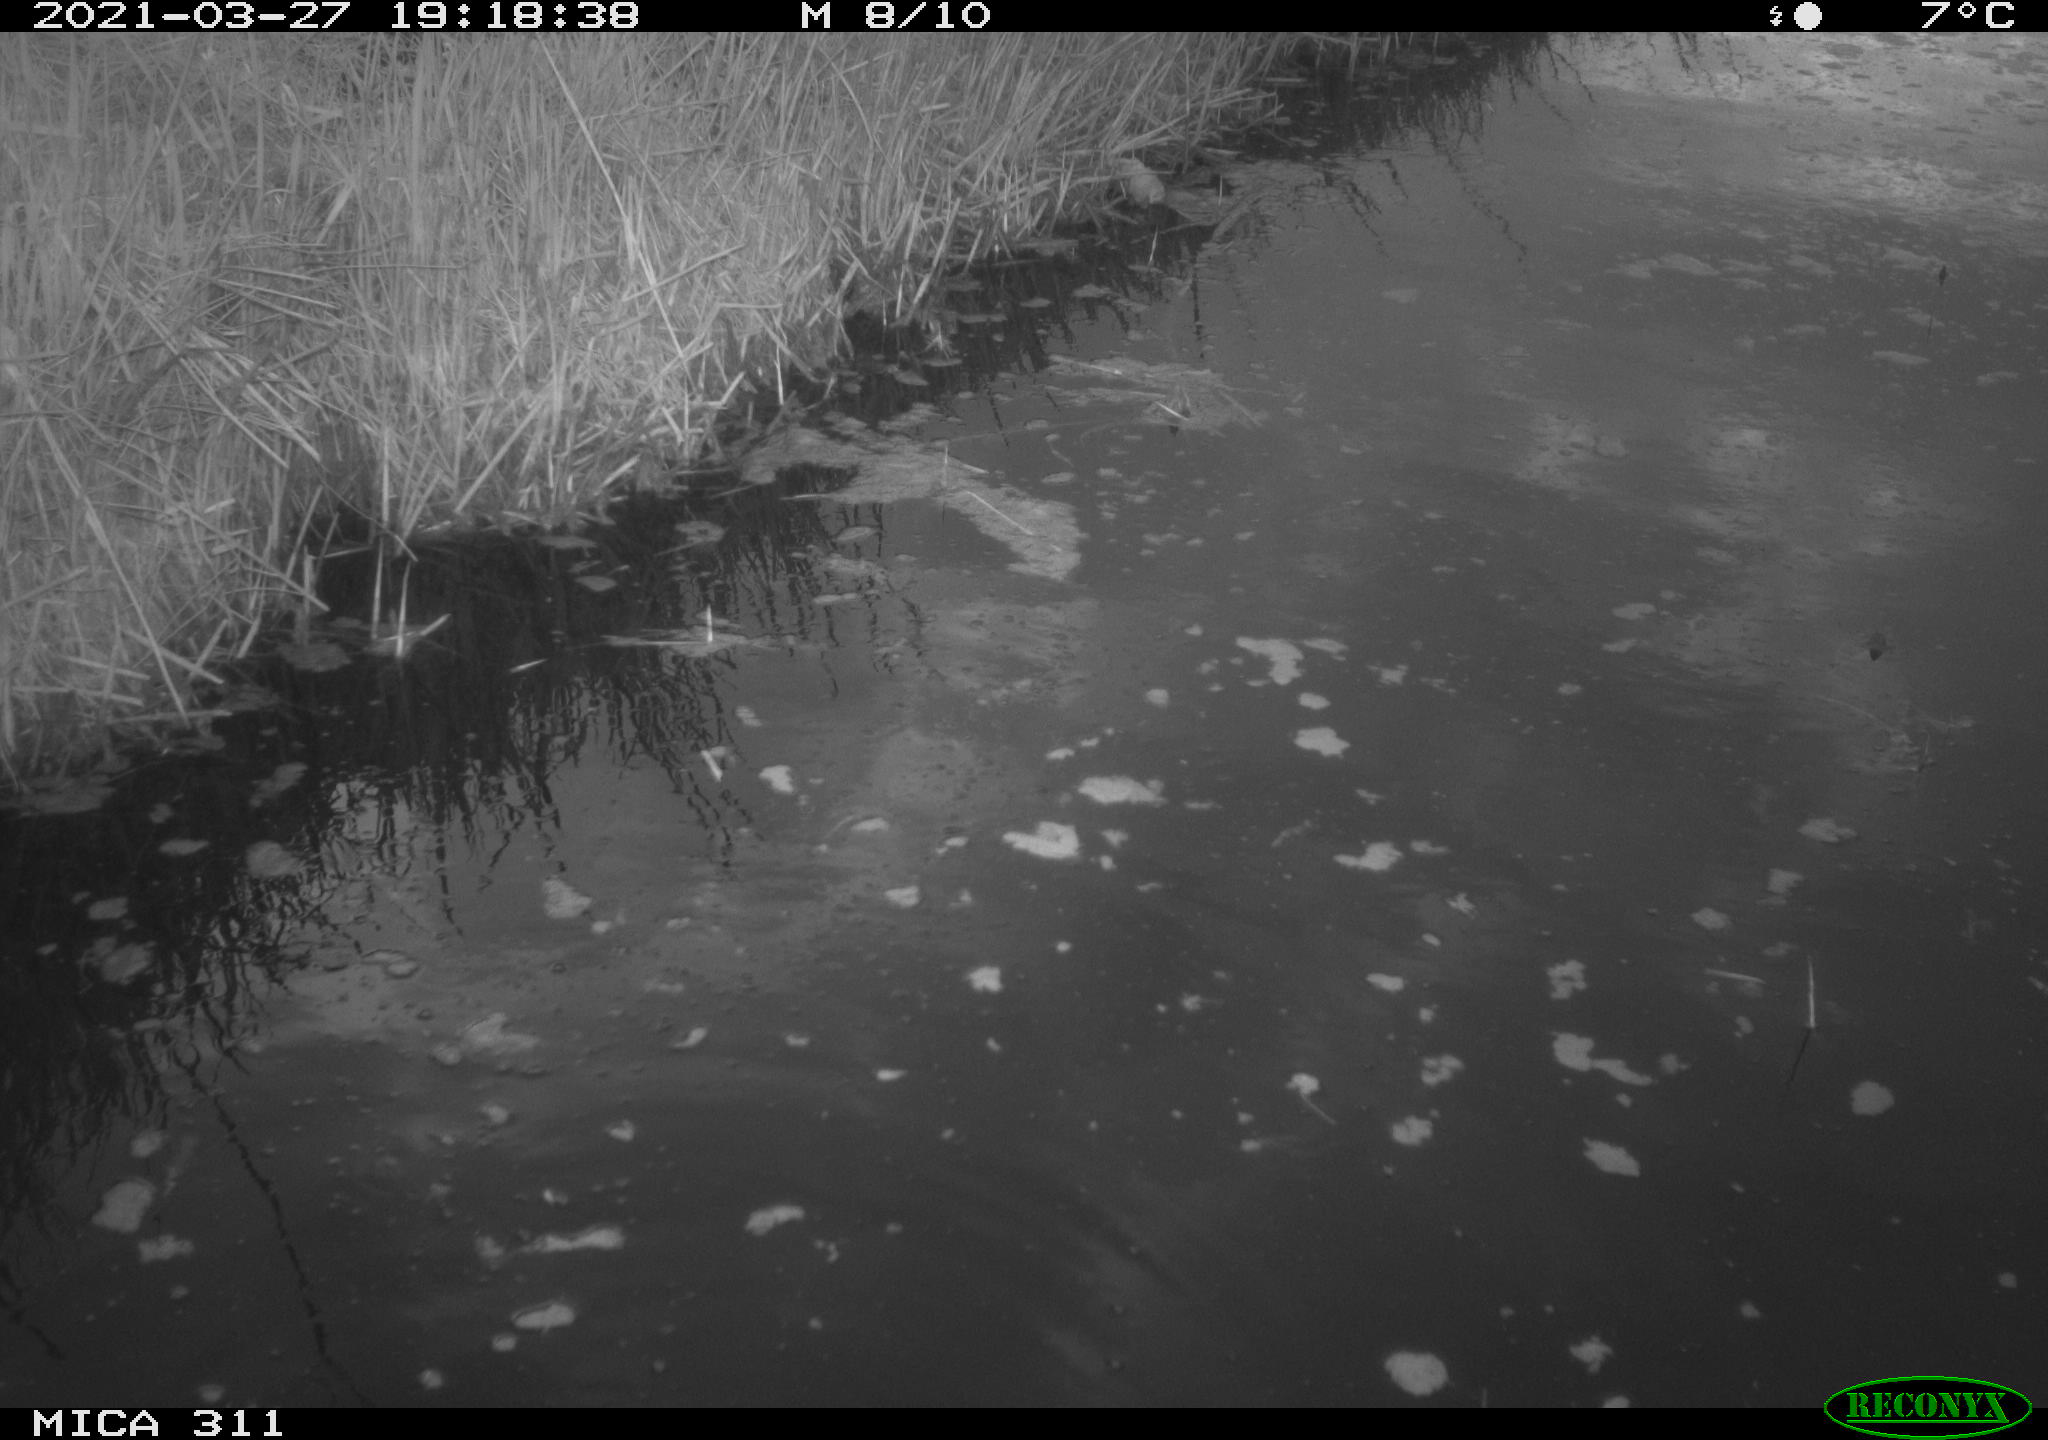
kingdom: Animalia
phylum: Chordata
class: Aves
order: Gruiformes
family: Rallidae
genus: Gallinula
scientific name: Gallinula chloropus
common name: Common moorhen
